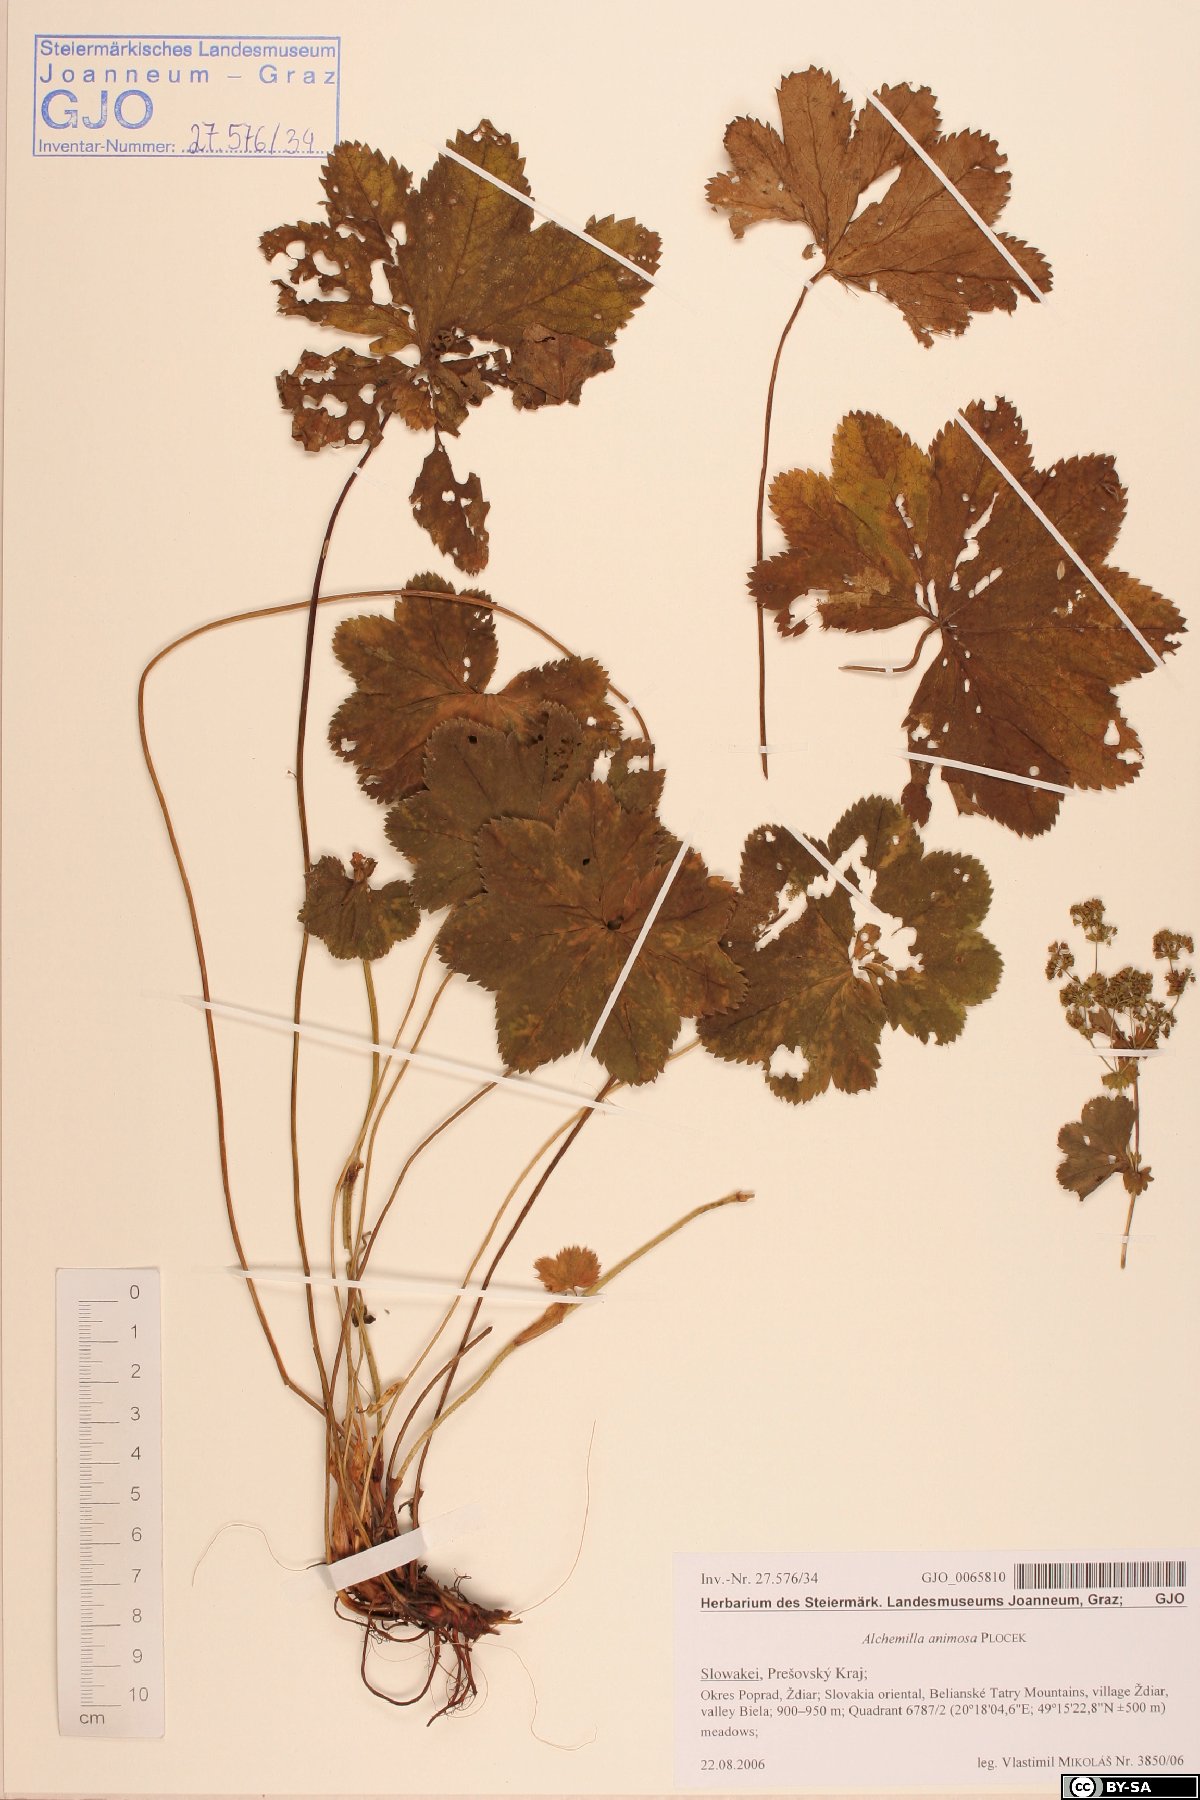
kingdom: Plantae
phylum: Tracheophyta
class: Magnoliopsida
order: Rosales
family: Rosaceae
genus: Alchemilla
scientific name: Alchemilla animosa
